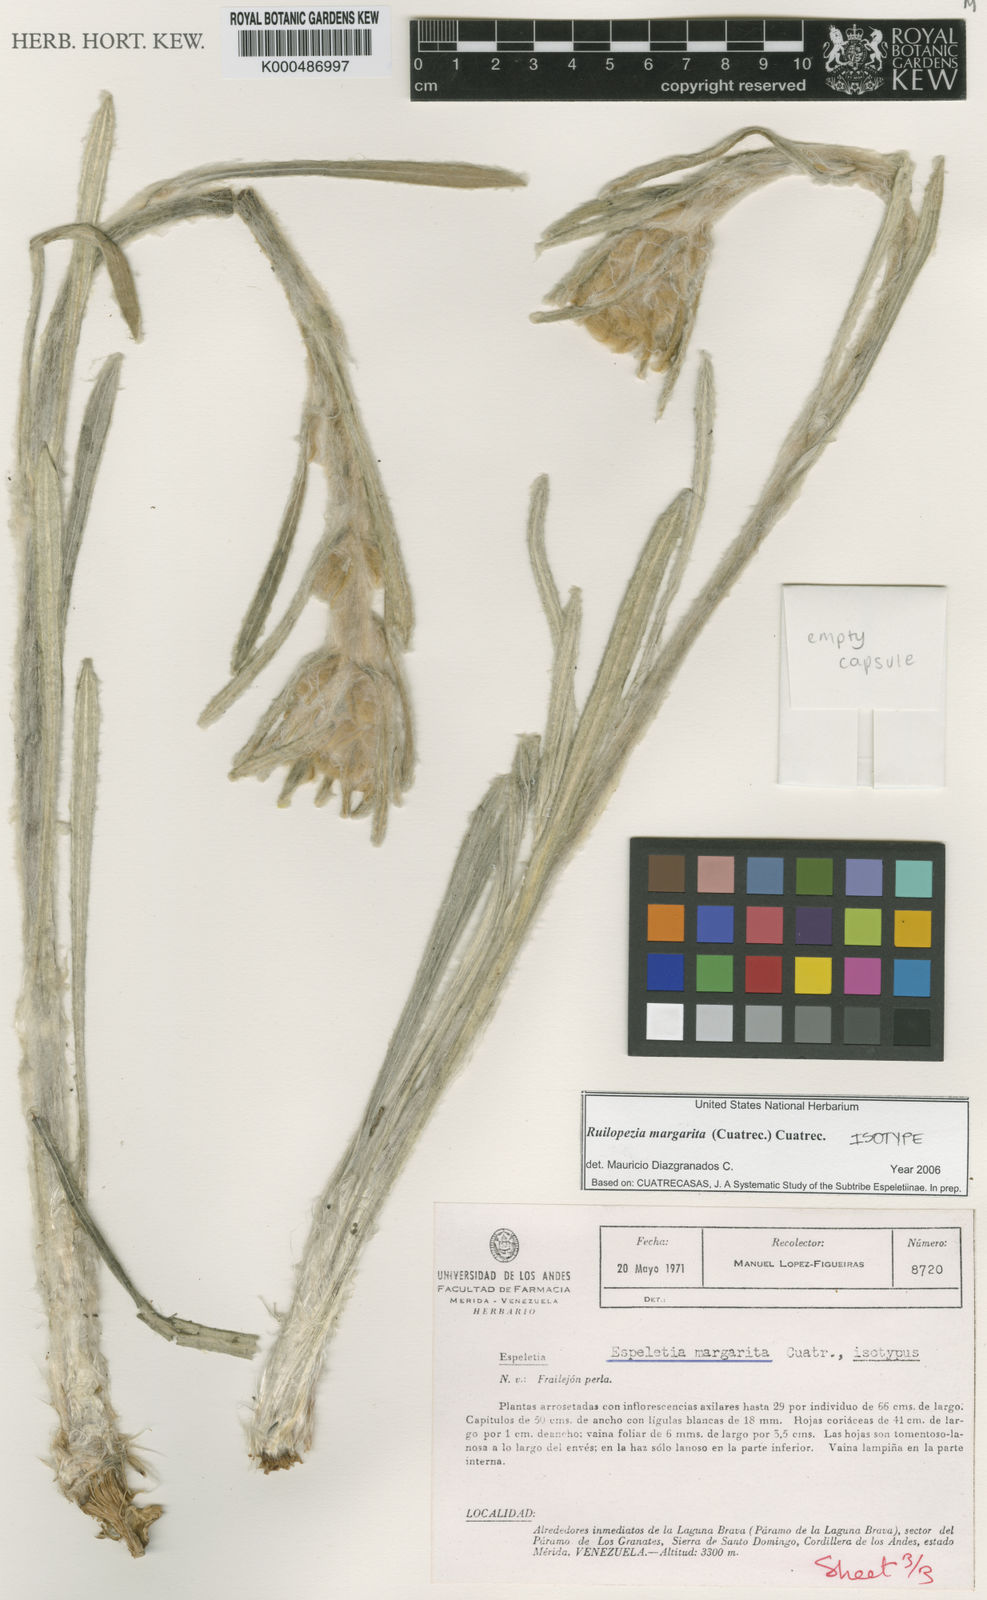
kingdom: Plantae
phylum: Tracheophyta
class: Magnoliopsida
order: Asterales
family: Asteraceae
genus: Espeletia
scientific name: Espeletia margarita
